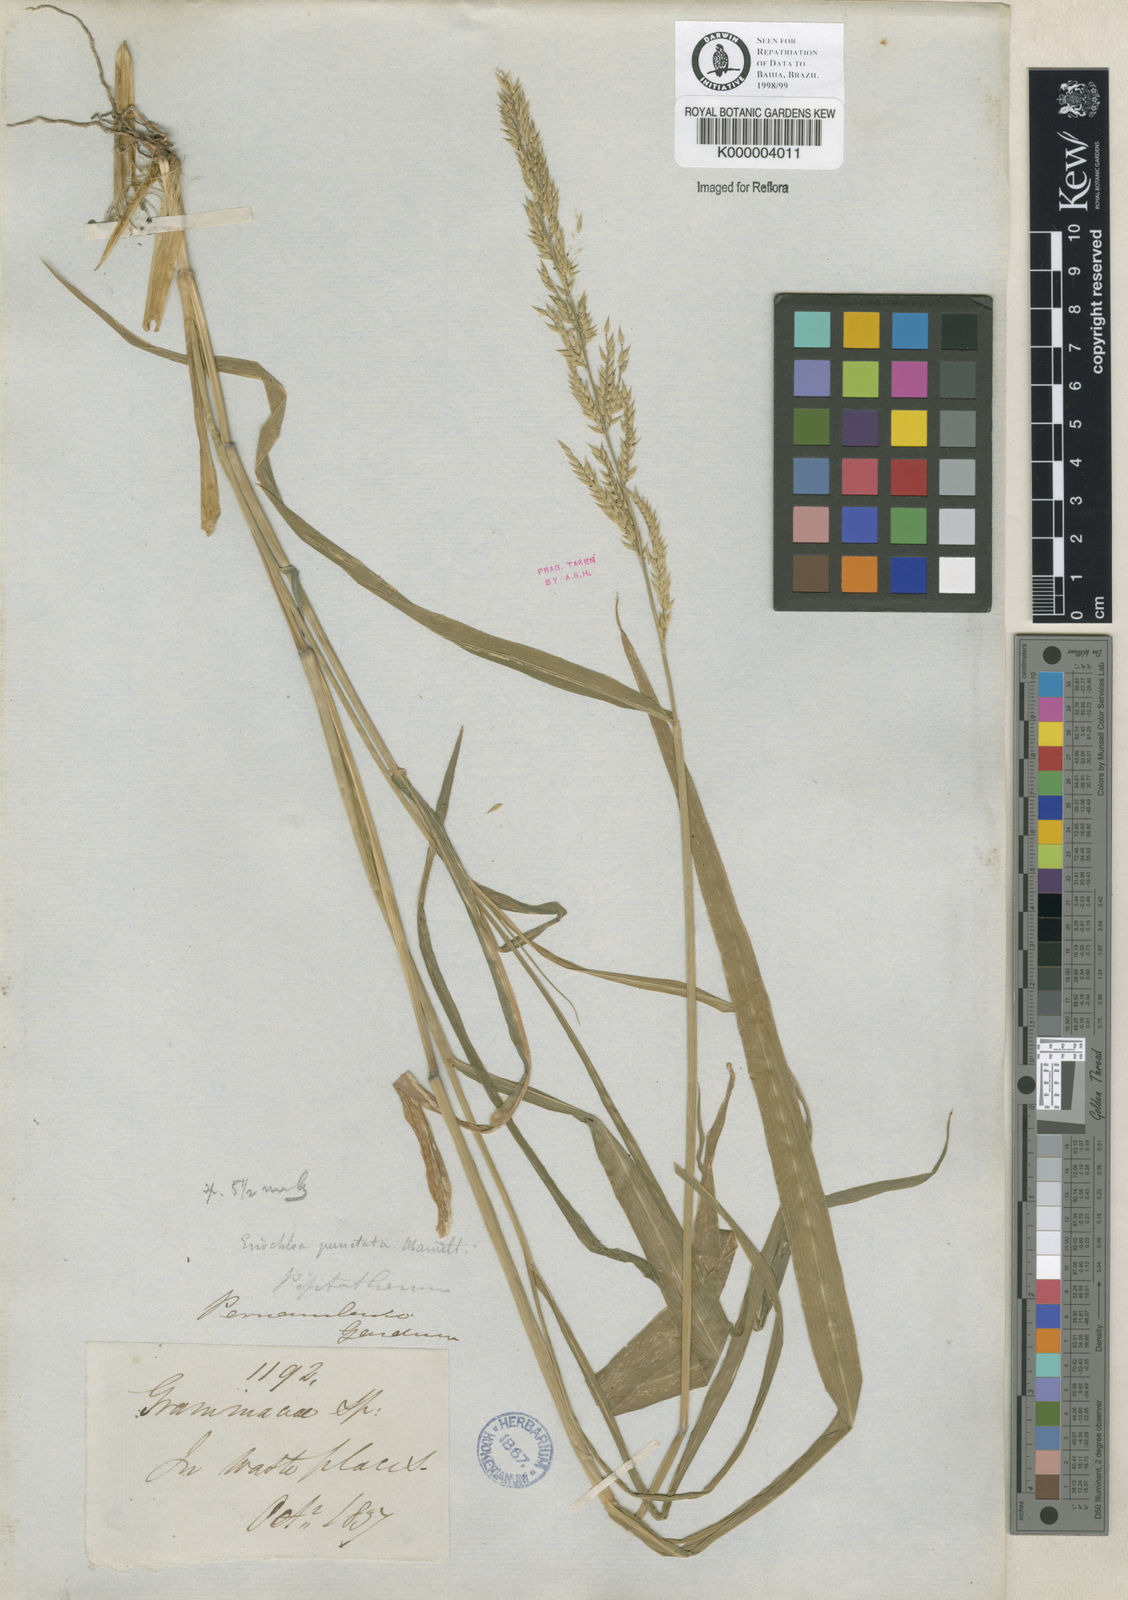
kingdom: Plantae
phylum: Tracheophyta
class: Liliopsida
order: Poales
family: Poaceae
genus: Eriochloa
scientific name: Eriochloa
